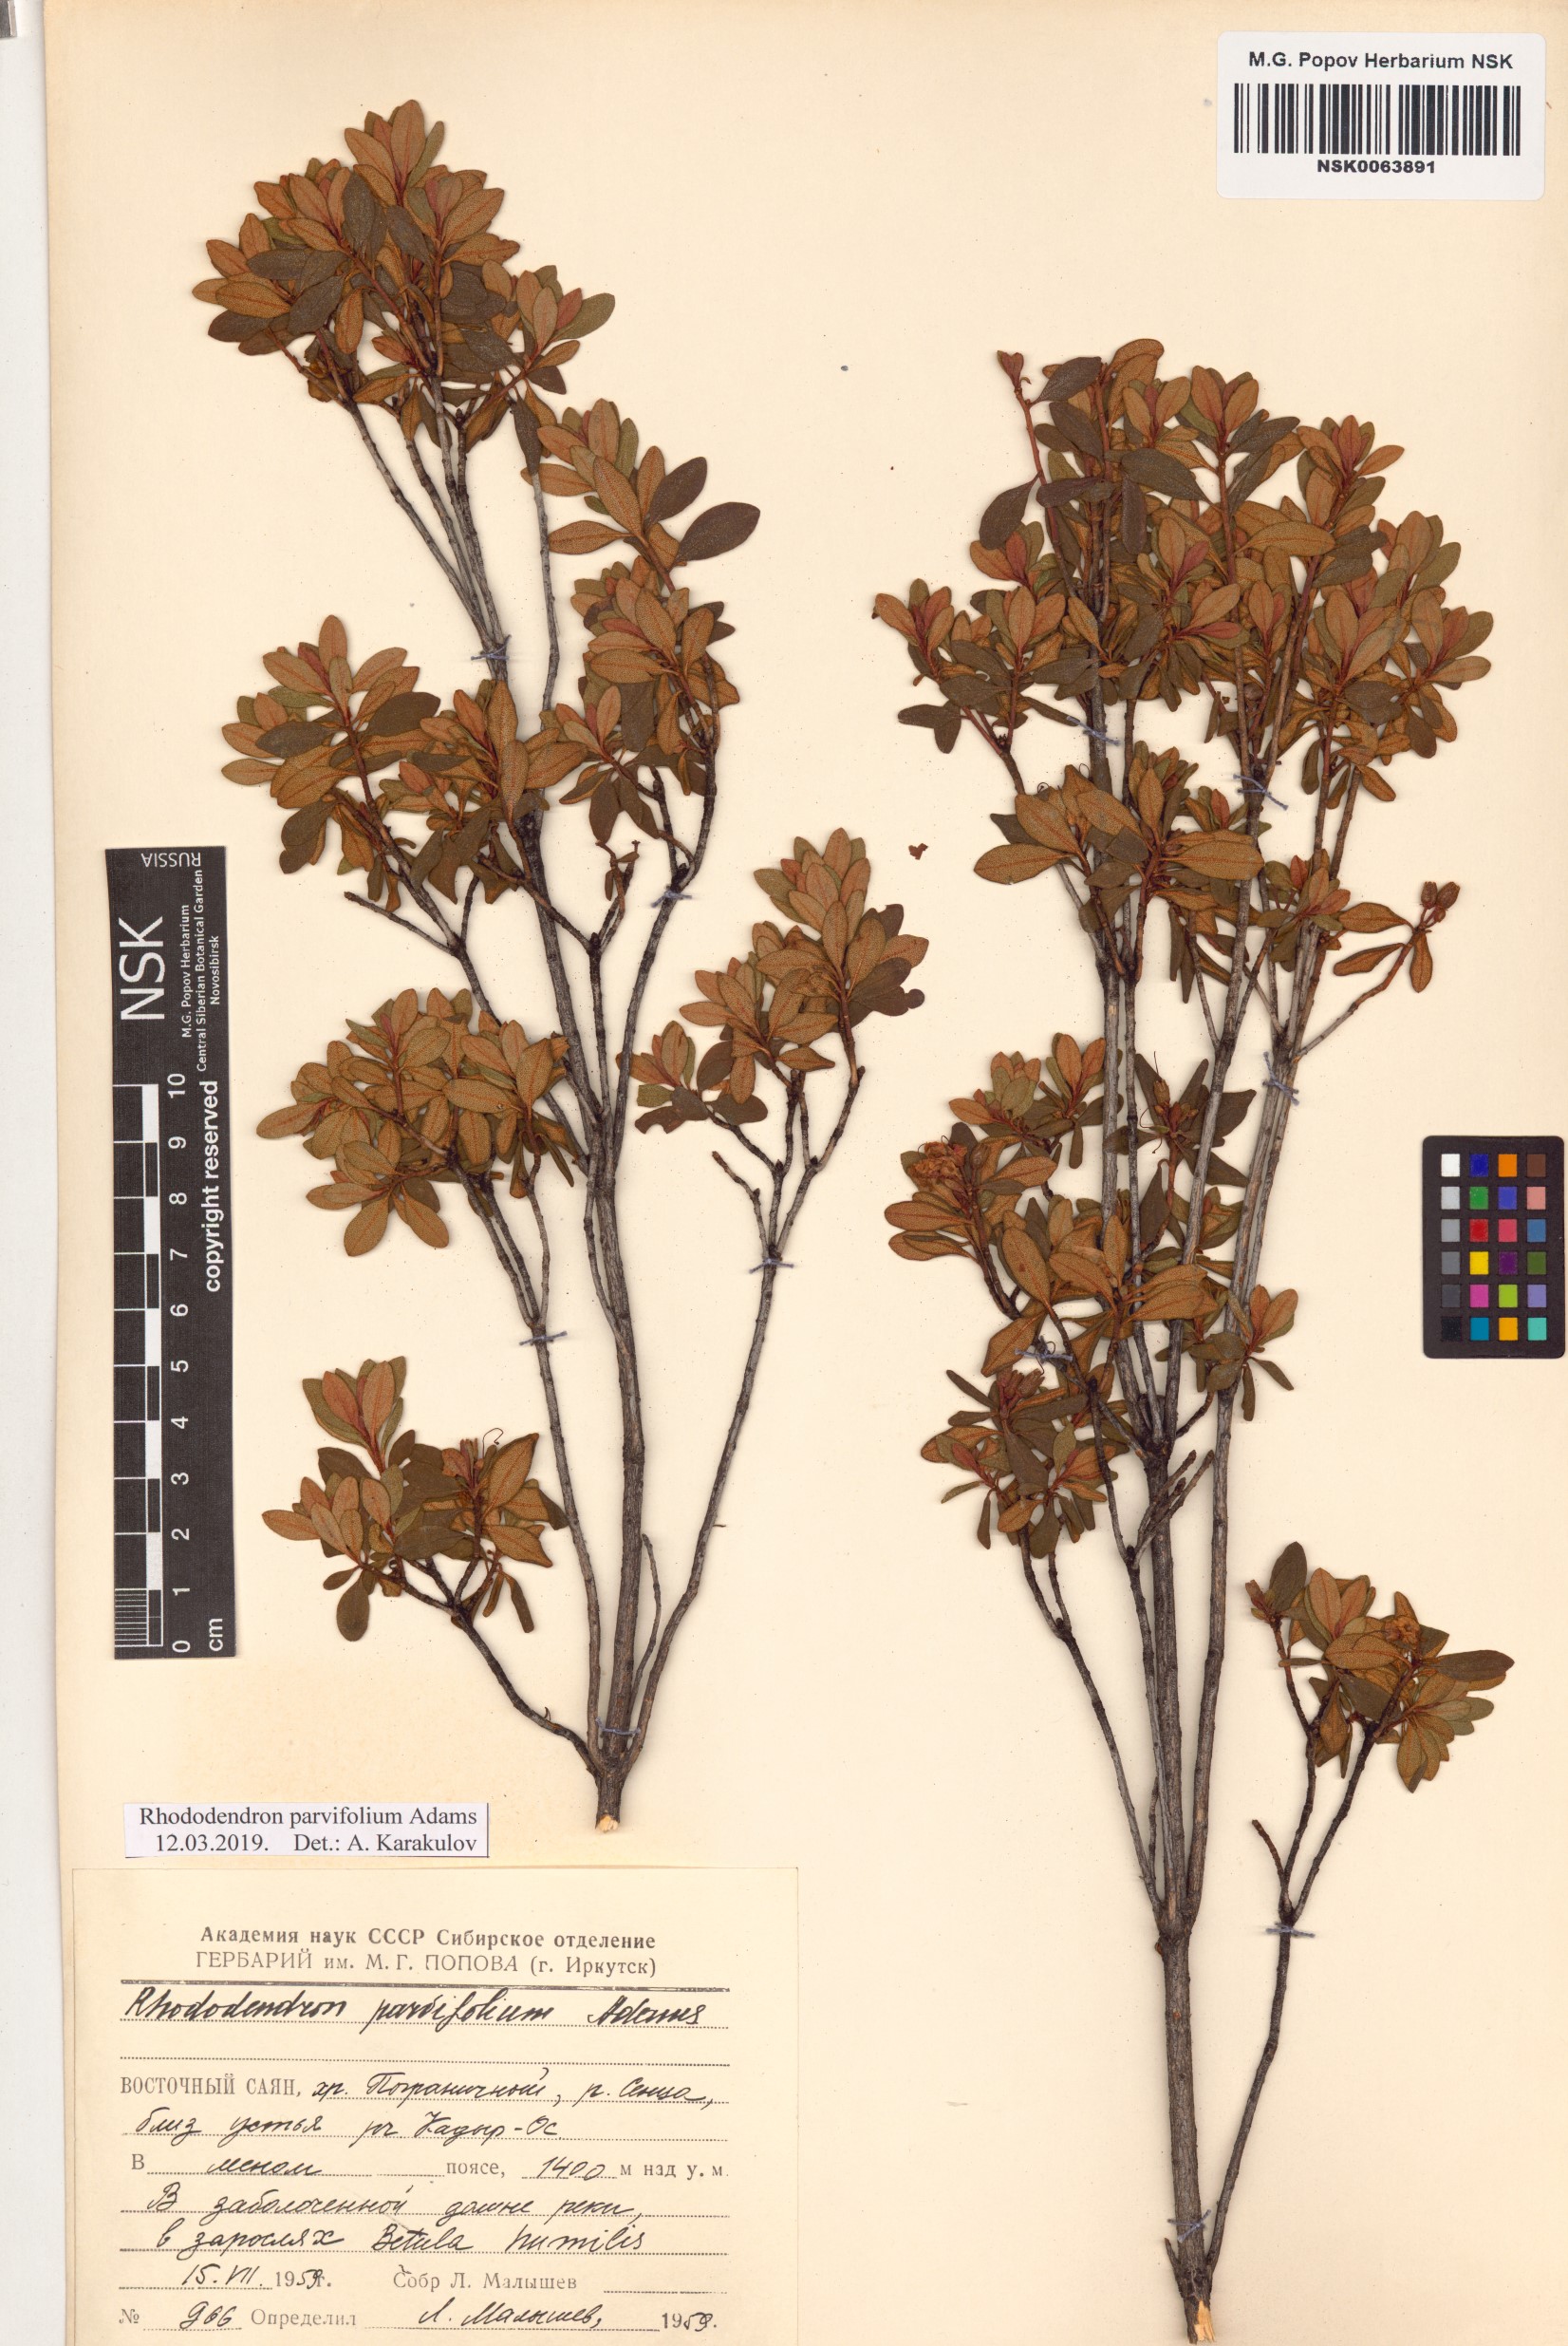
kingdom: Plantae
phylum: Tracheophyta
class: Magnoliopsida
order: Ericales
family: Ericaceae
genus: Rhododendron
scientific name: Rhododendron parvifolium
